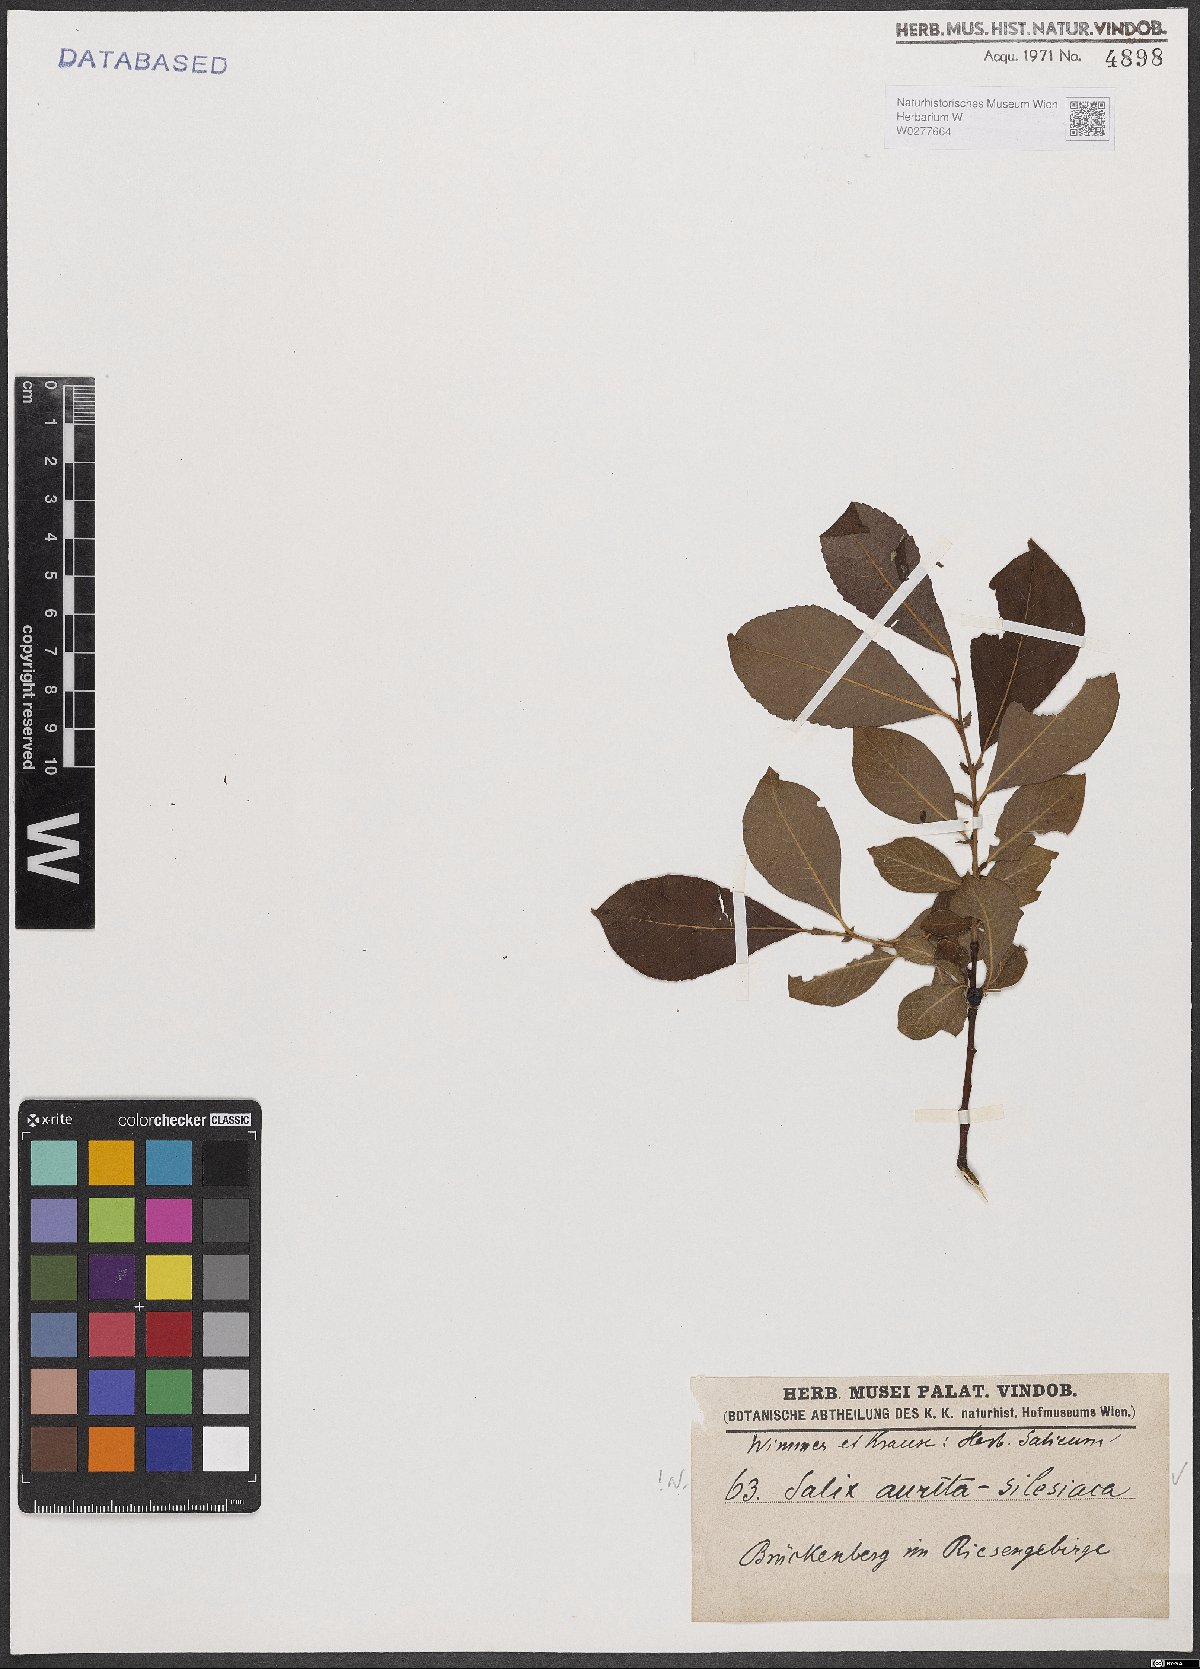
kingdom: Plantae
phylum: Tracheophyta
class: Magnoliopsida
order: Malpighiales
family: Salicaceae
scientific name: Salicaceae
